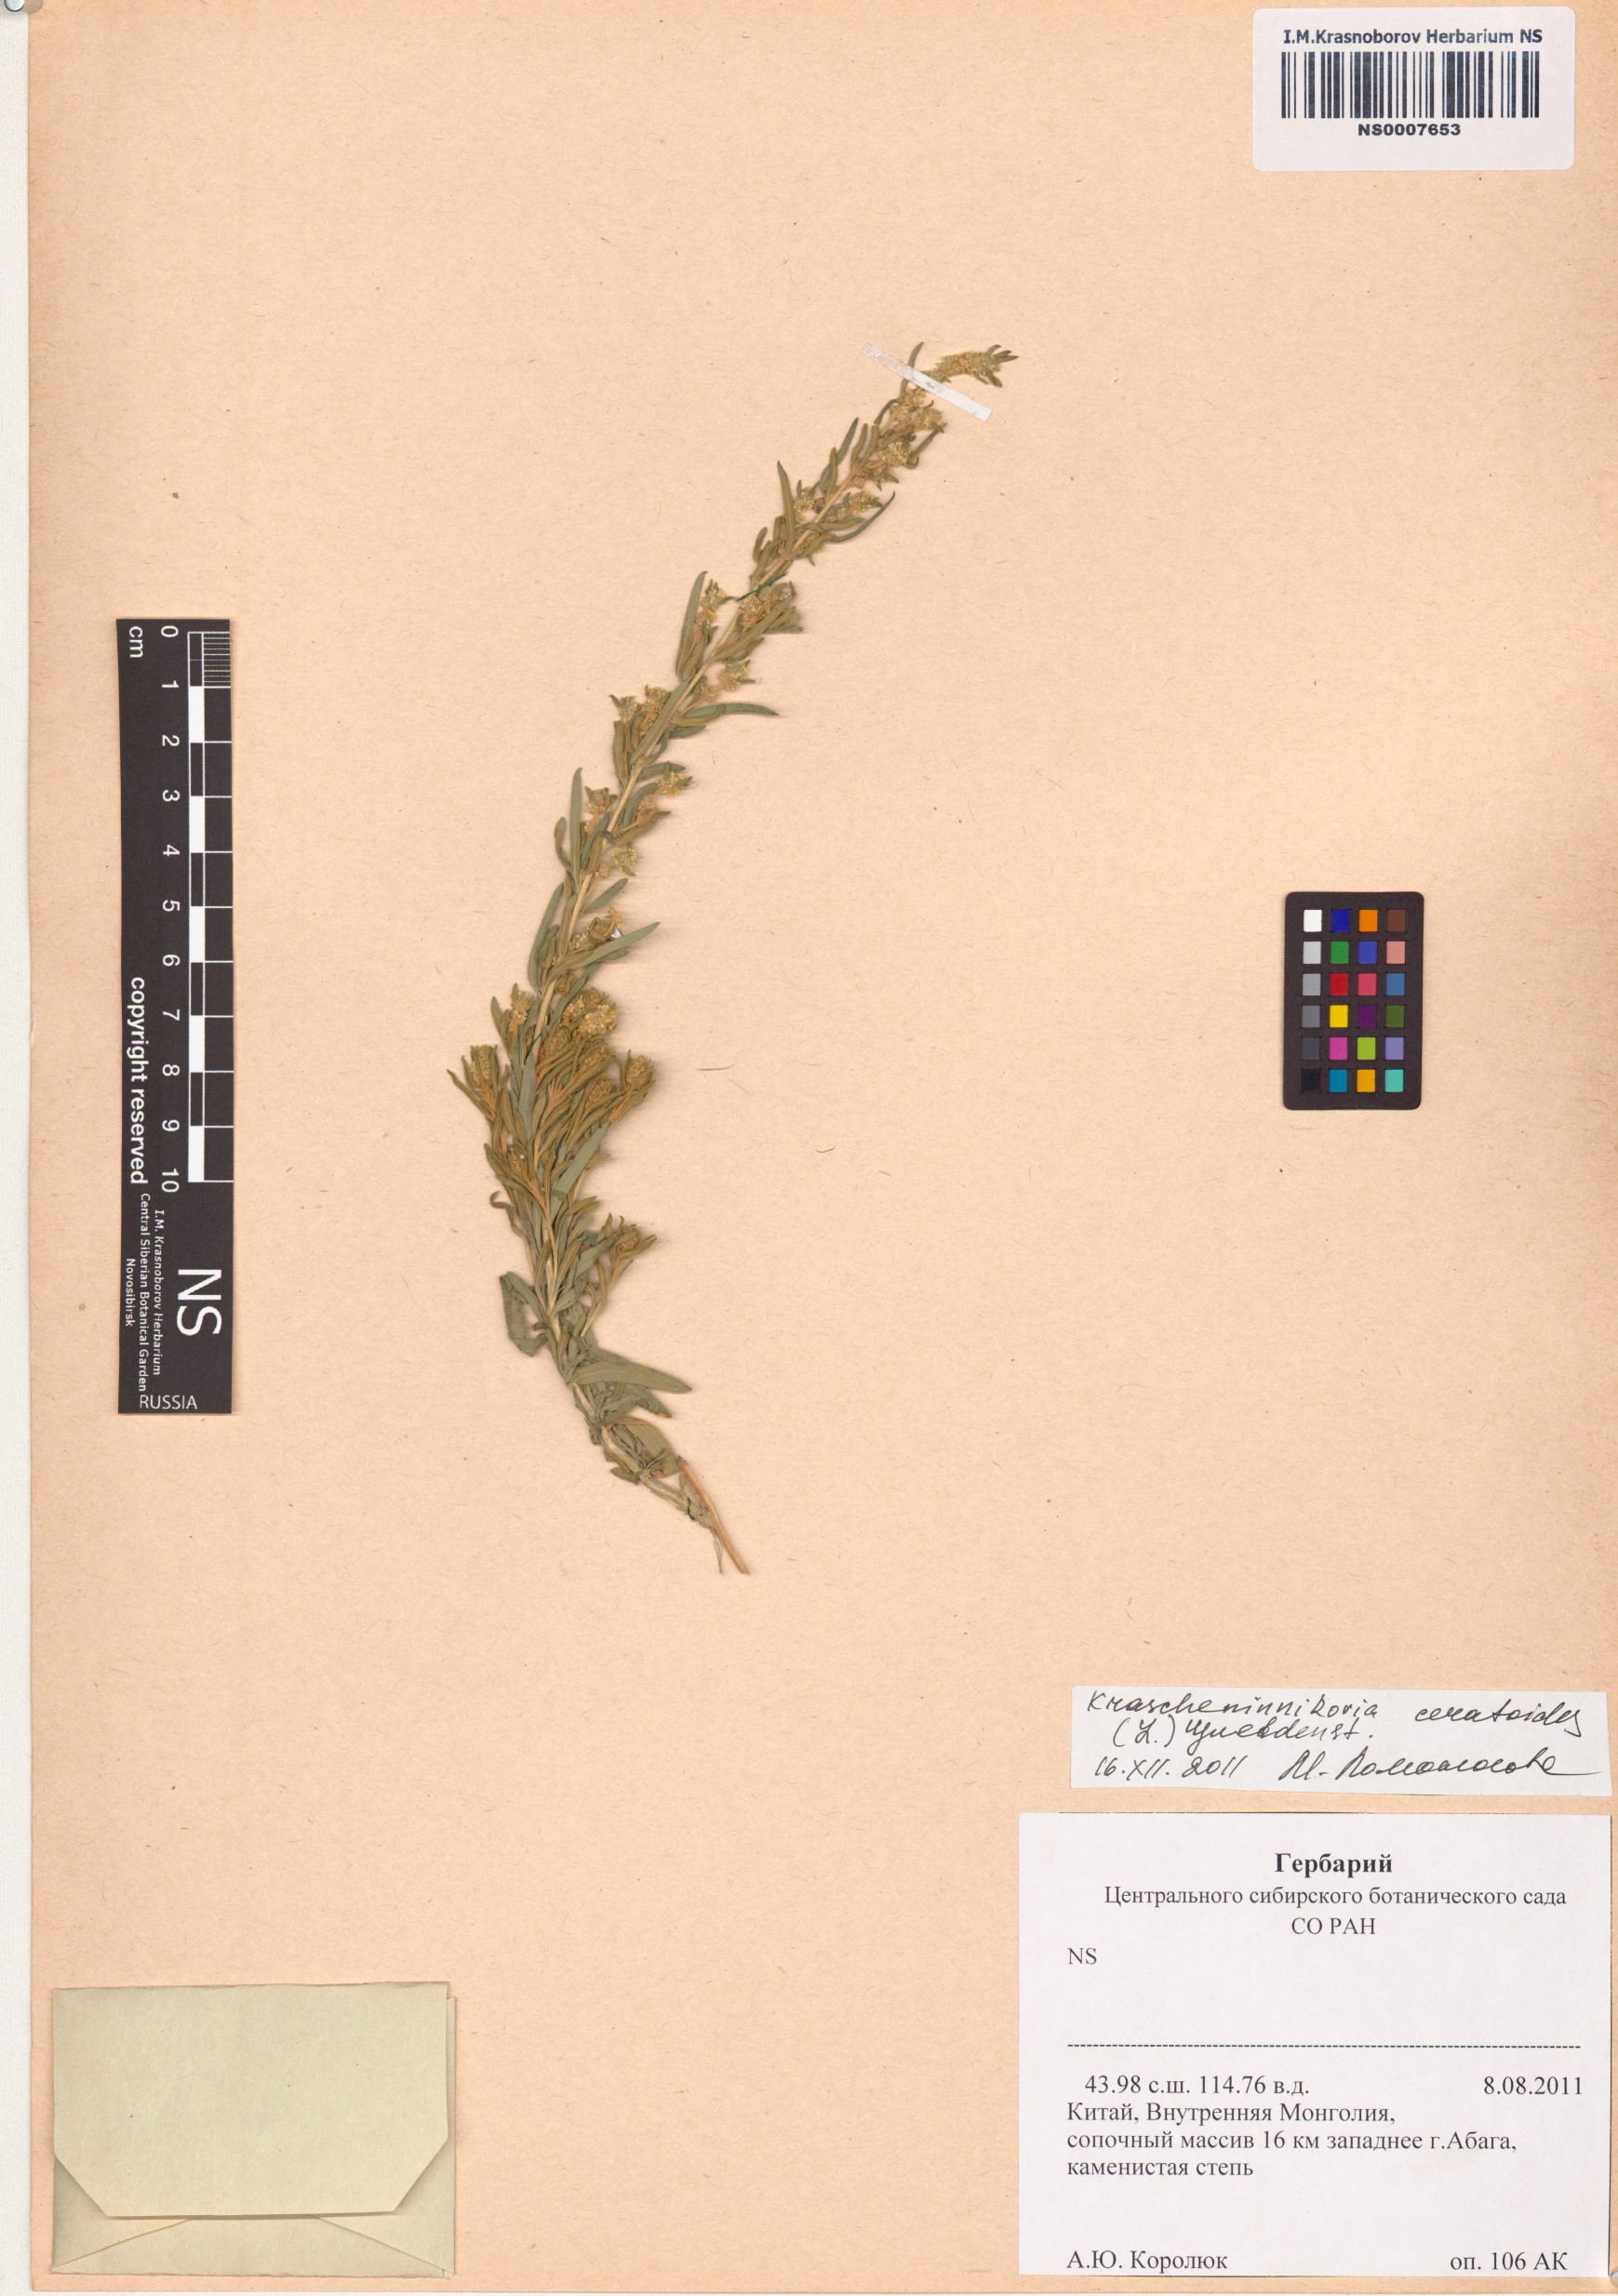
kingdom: Plantae
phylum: Tracheophyta
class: Magnoliopsida
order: Caryophyllales
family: Amaranthaceae
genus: Krascheninnikovia
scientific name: Krascheninnikovia ceratoides
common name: Pamirian winterfat
